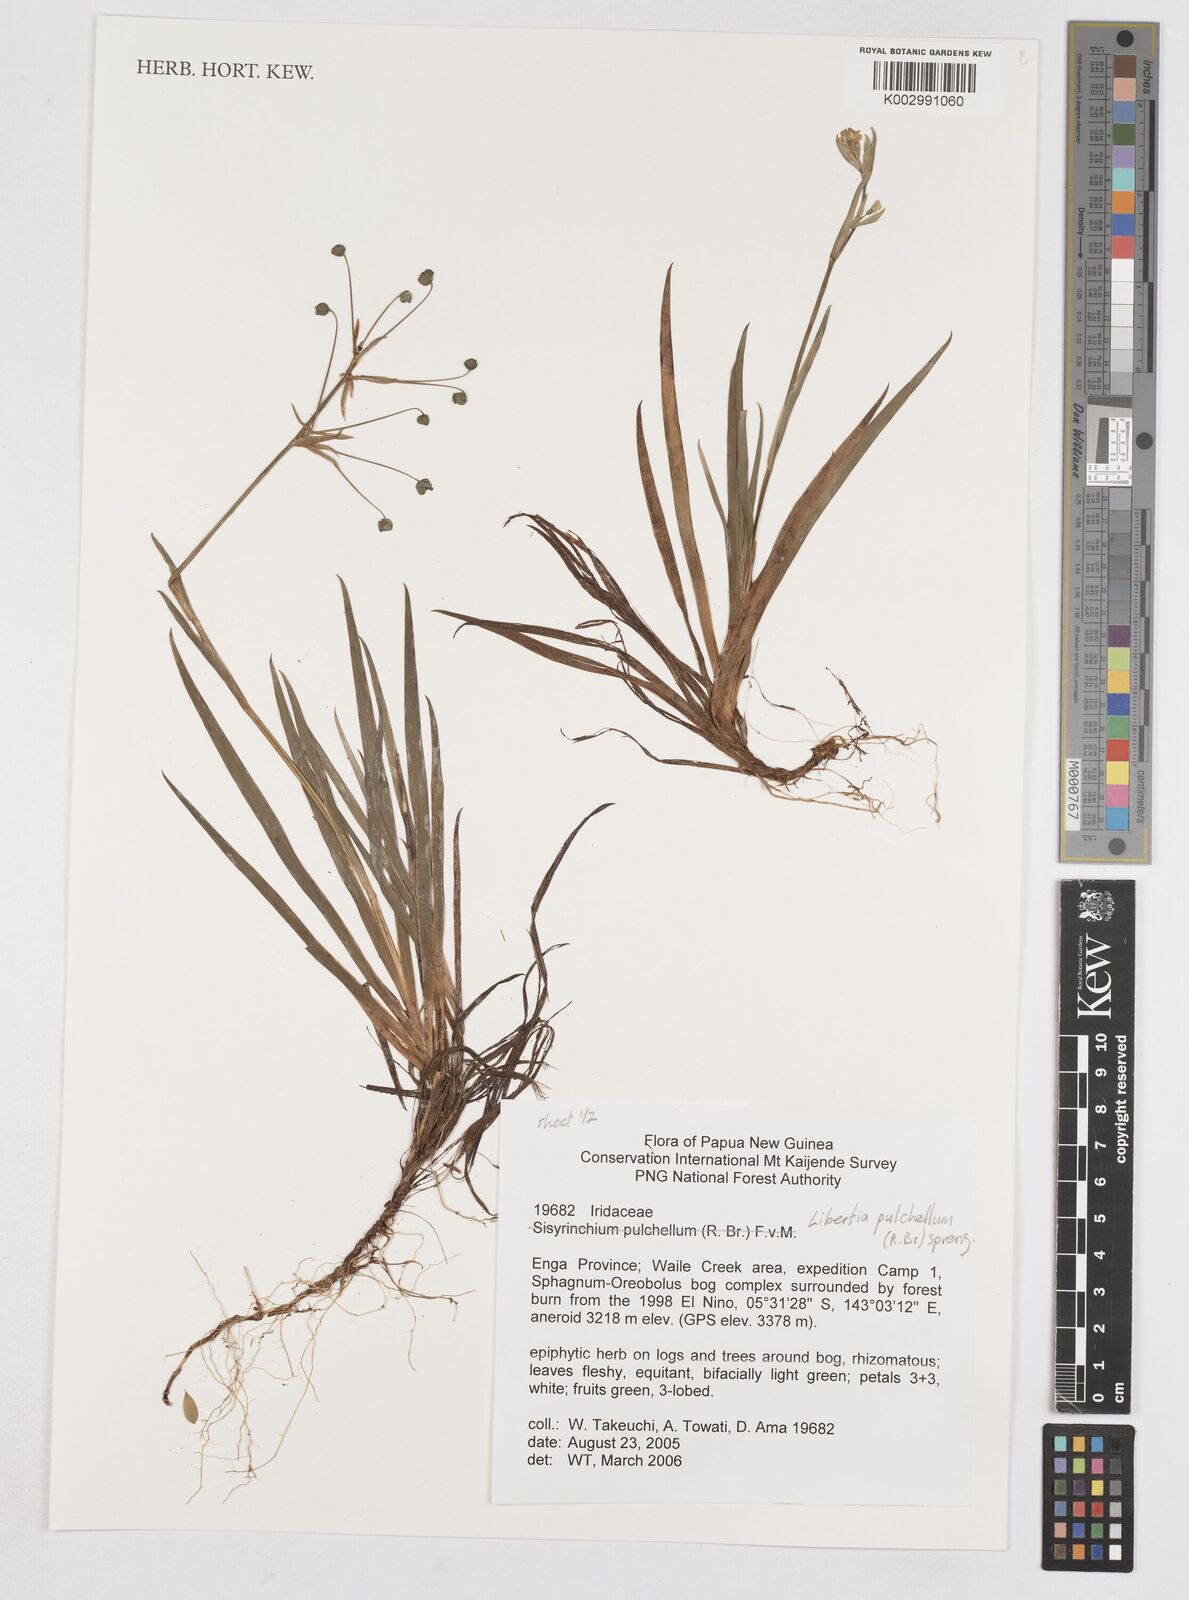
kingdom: Plantae
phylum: Tracheophyta
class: Liliopsida
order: Asparagales
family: Iridaceae
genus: Libertia
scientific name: Libertia pulchella
